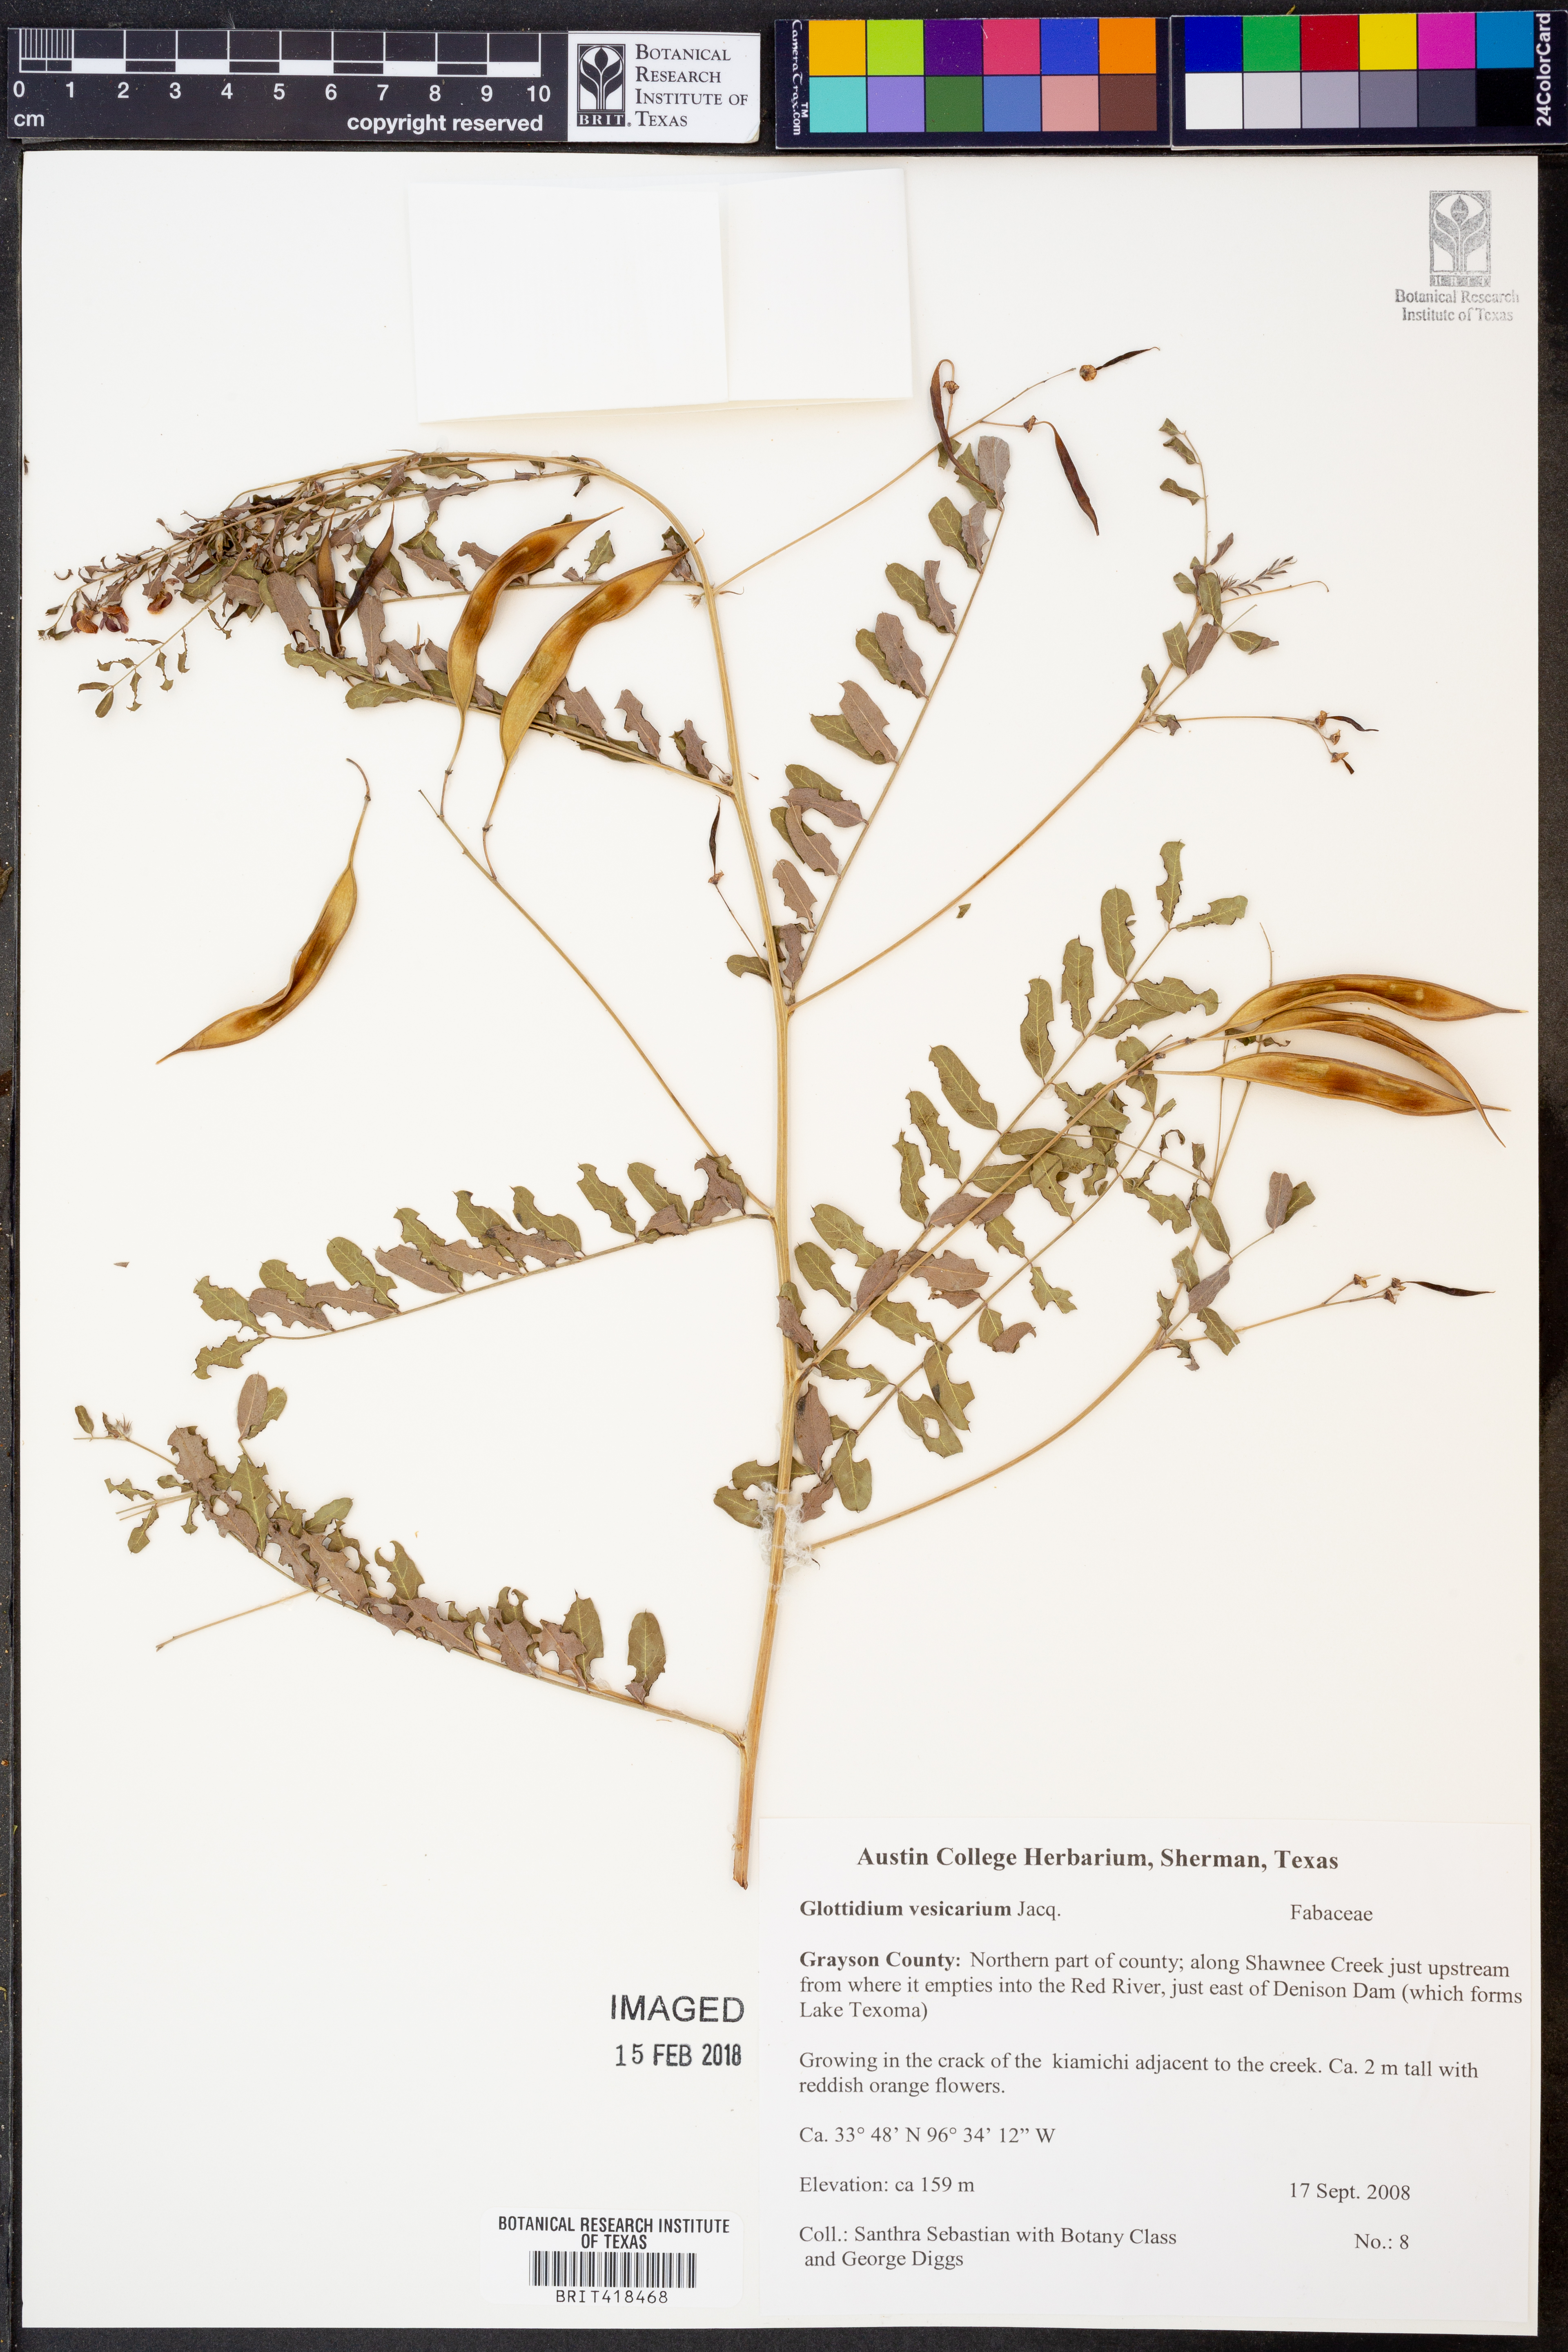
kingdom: Plantae
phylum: Tracheophyta
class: Magnoliopsida
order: Fabales
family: Fabaceae
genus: Sesbania
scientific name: Sesbania vesicaria
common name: Bagpod
